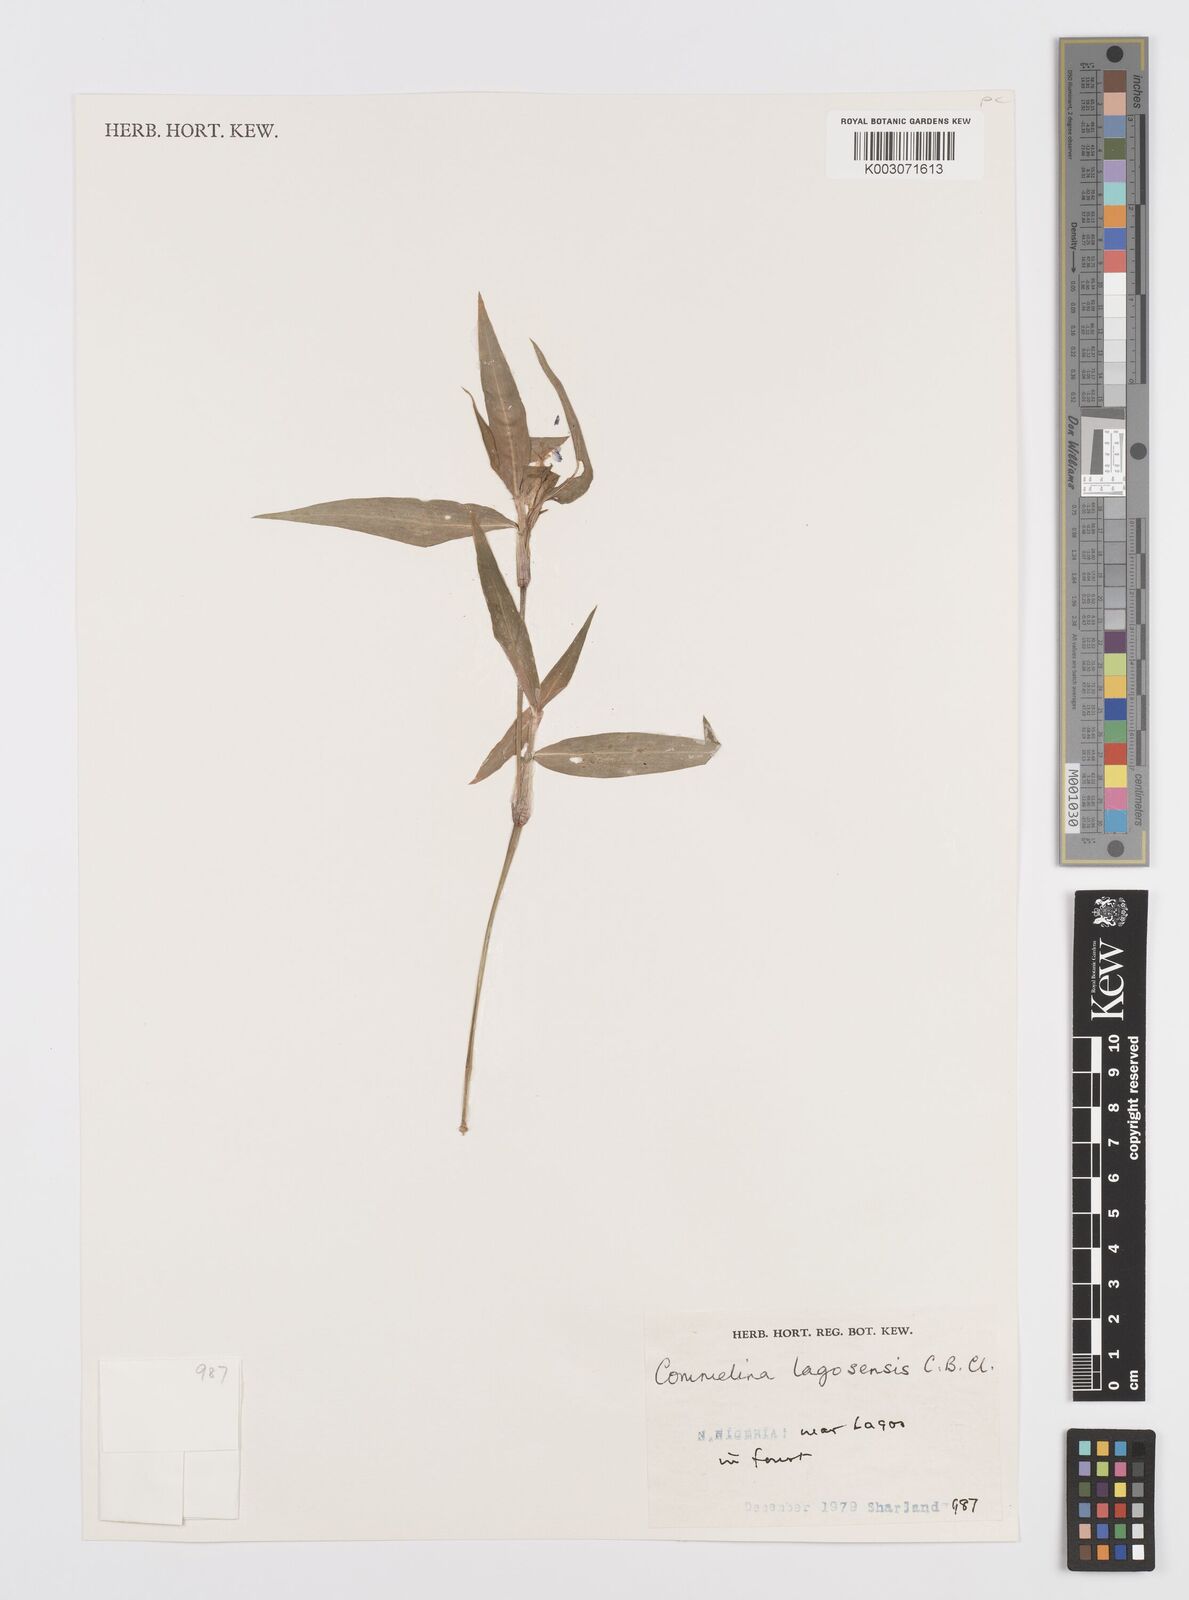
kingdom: Plantae
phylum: Tracheophyta
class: Liliopsida
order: Commelinales
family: Commelinaceae
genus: Commelina
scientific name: Commelina bracteosa
